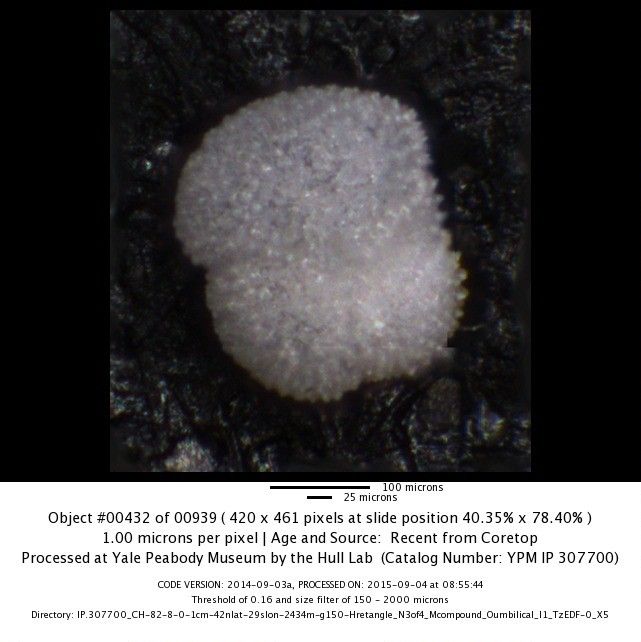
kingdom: Chromista
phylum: Foraminifera
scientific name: Foraminifera
